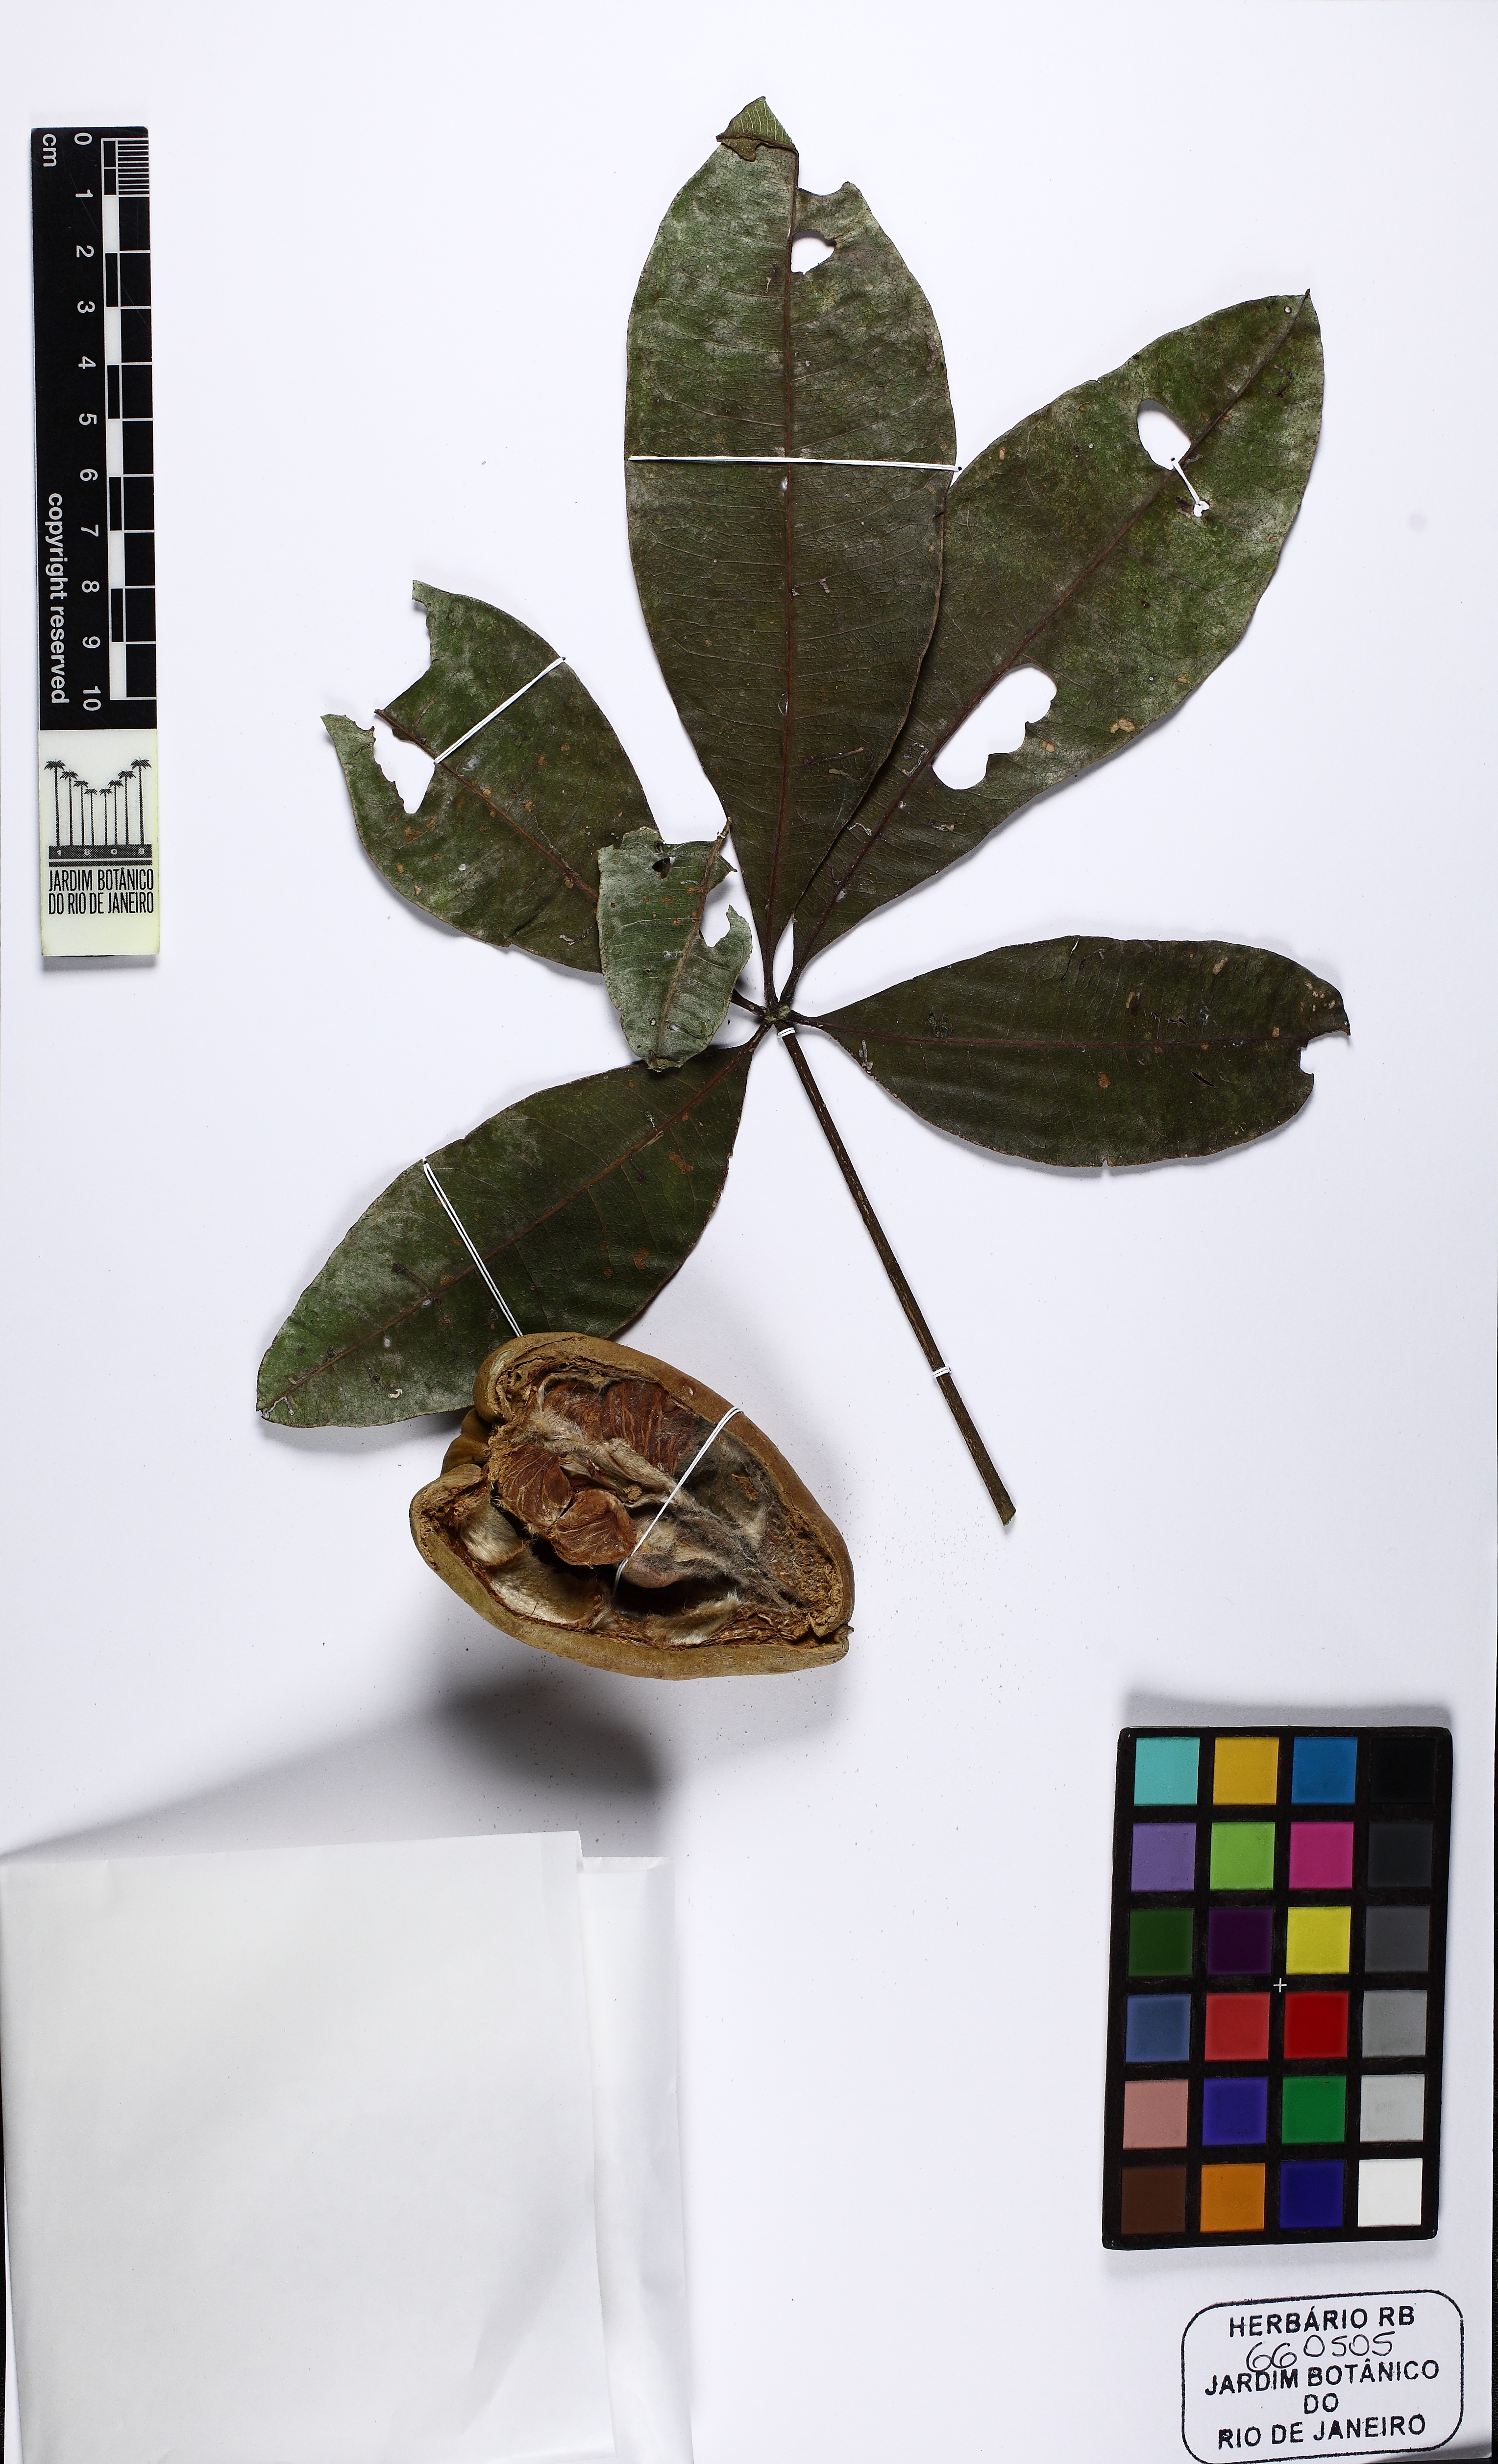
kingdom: Plantae
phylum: Tracheophyta
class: Magnoliopsida
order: Malvales
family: Malvaceae
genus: Pachira
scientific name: Pachira glabra
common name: Moneytree
